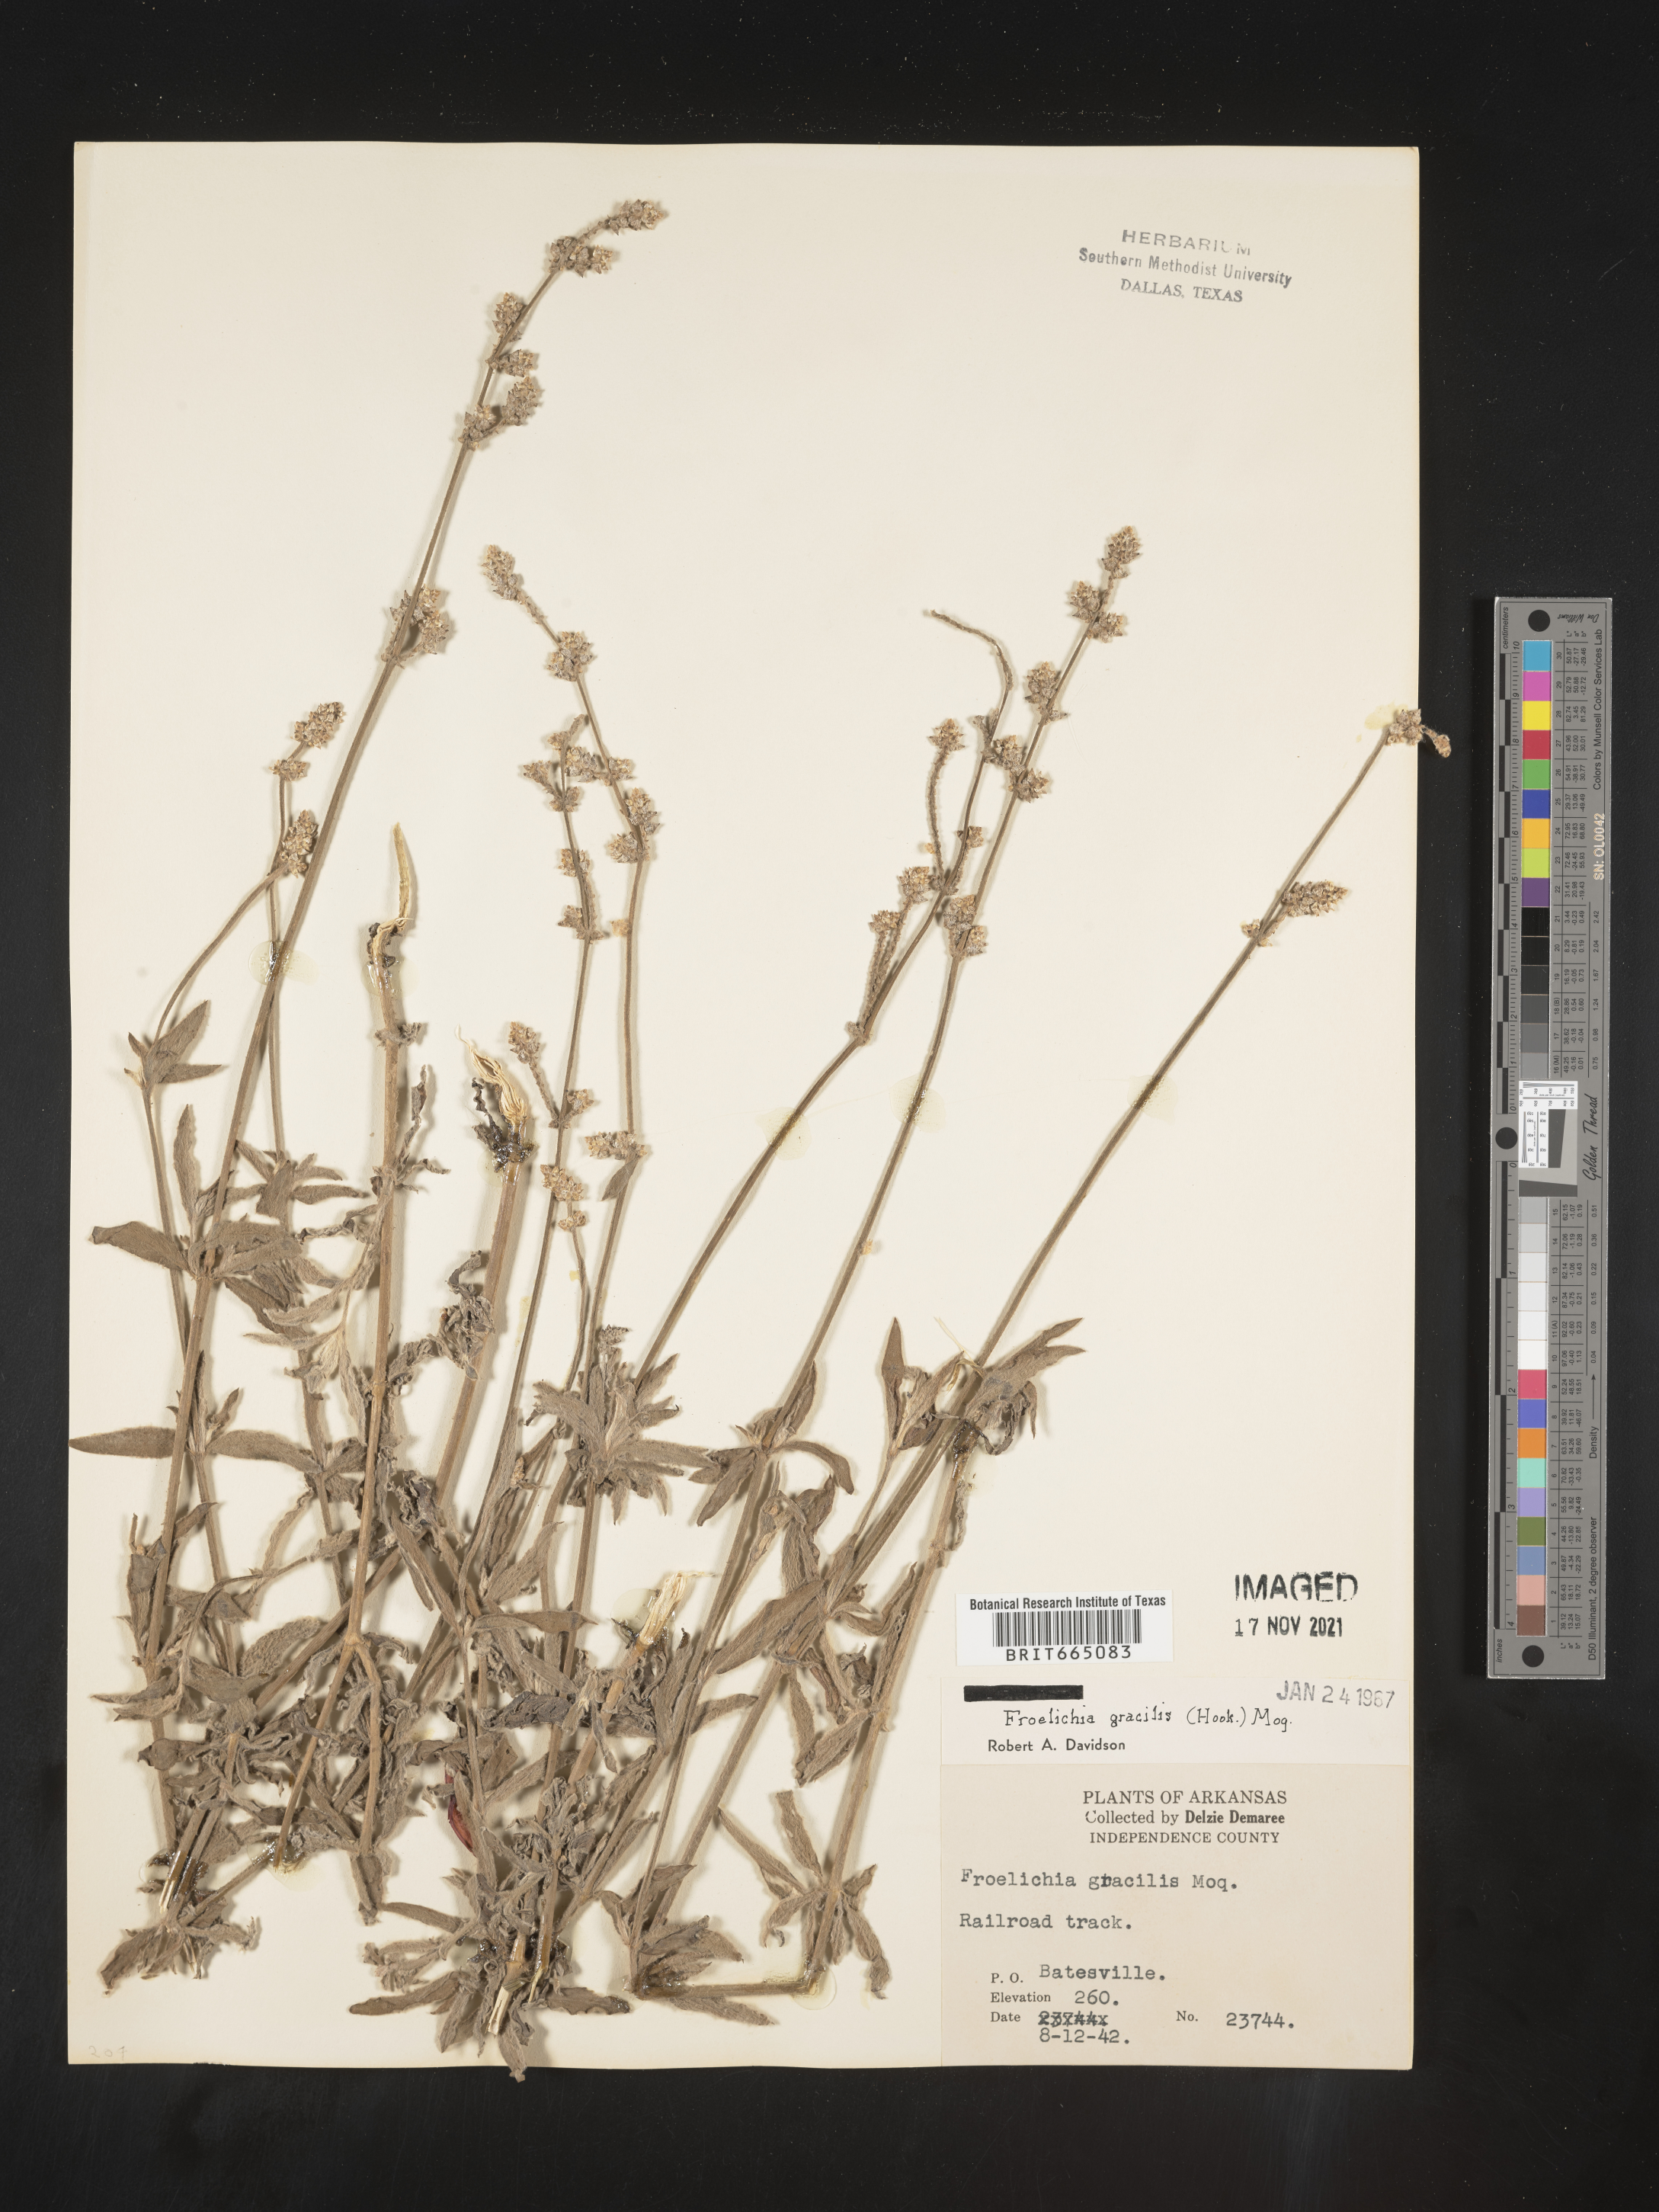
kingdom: Plantae
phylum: Tracheophyta
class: Magnoliopsida
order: Caryophyllales
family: Amaranthaceae
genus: Froelichia
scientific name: Froelichia gracilis
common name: Slender cottonweed
